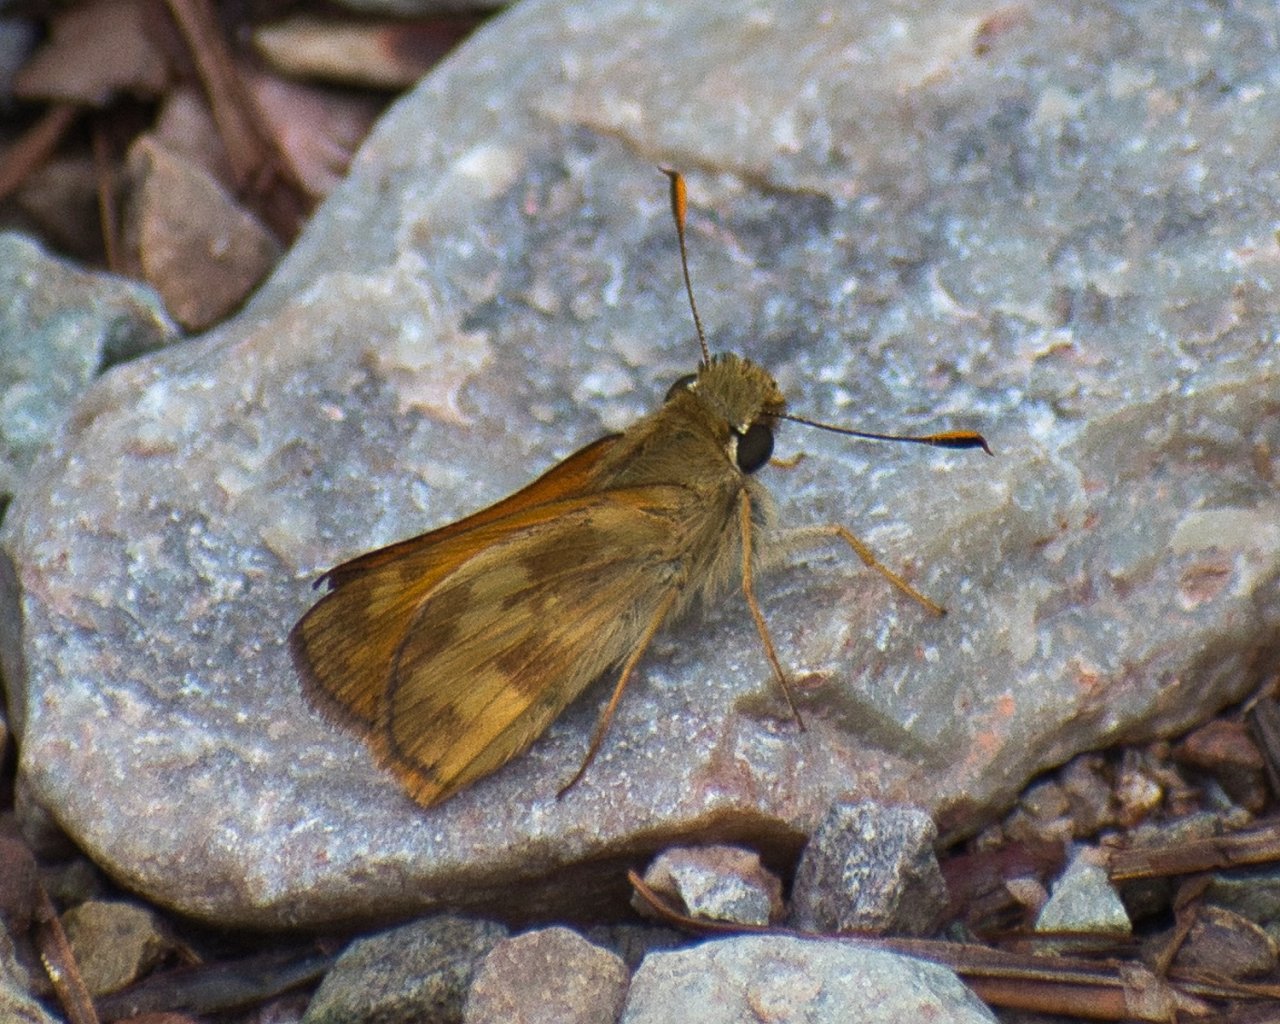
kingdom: Animalia
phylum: Arthropoda
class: Insecta
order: Lepidoptera
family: Hesperiidae
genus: Lon
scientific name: Lon taxiles
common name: Taxiles Skipper
